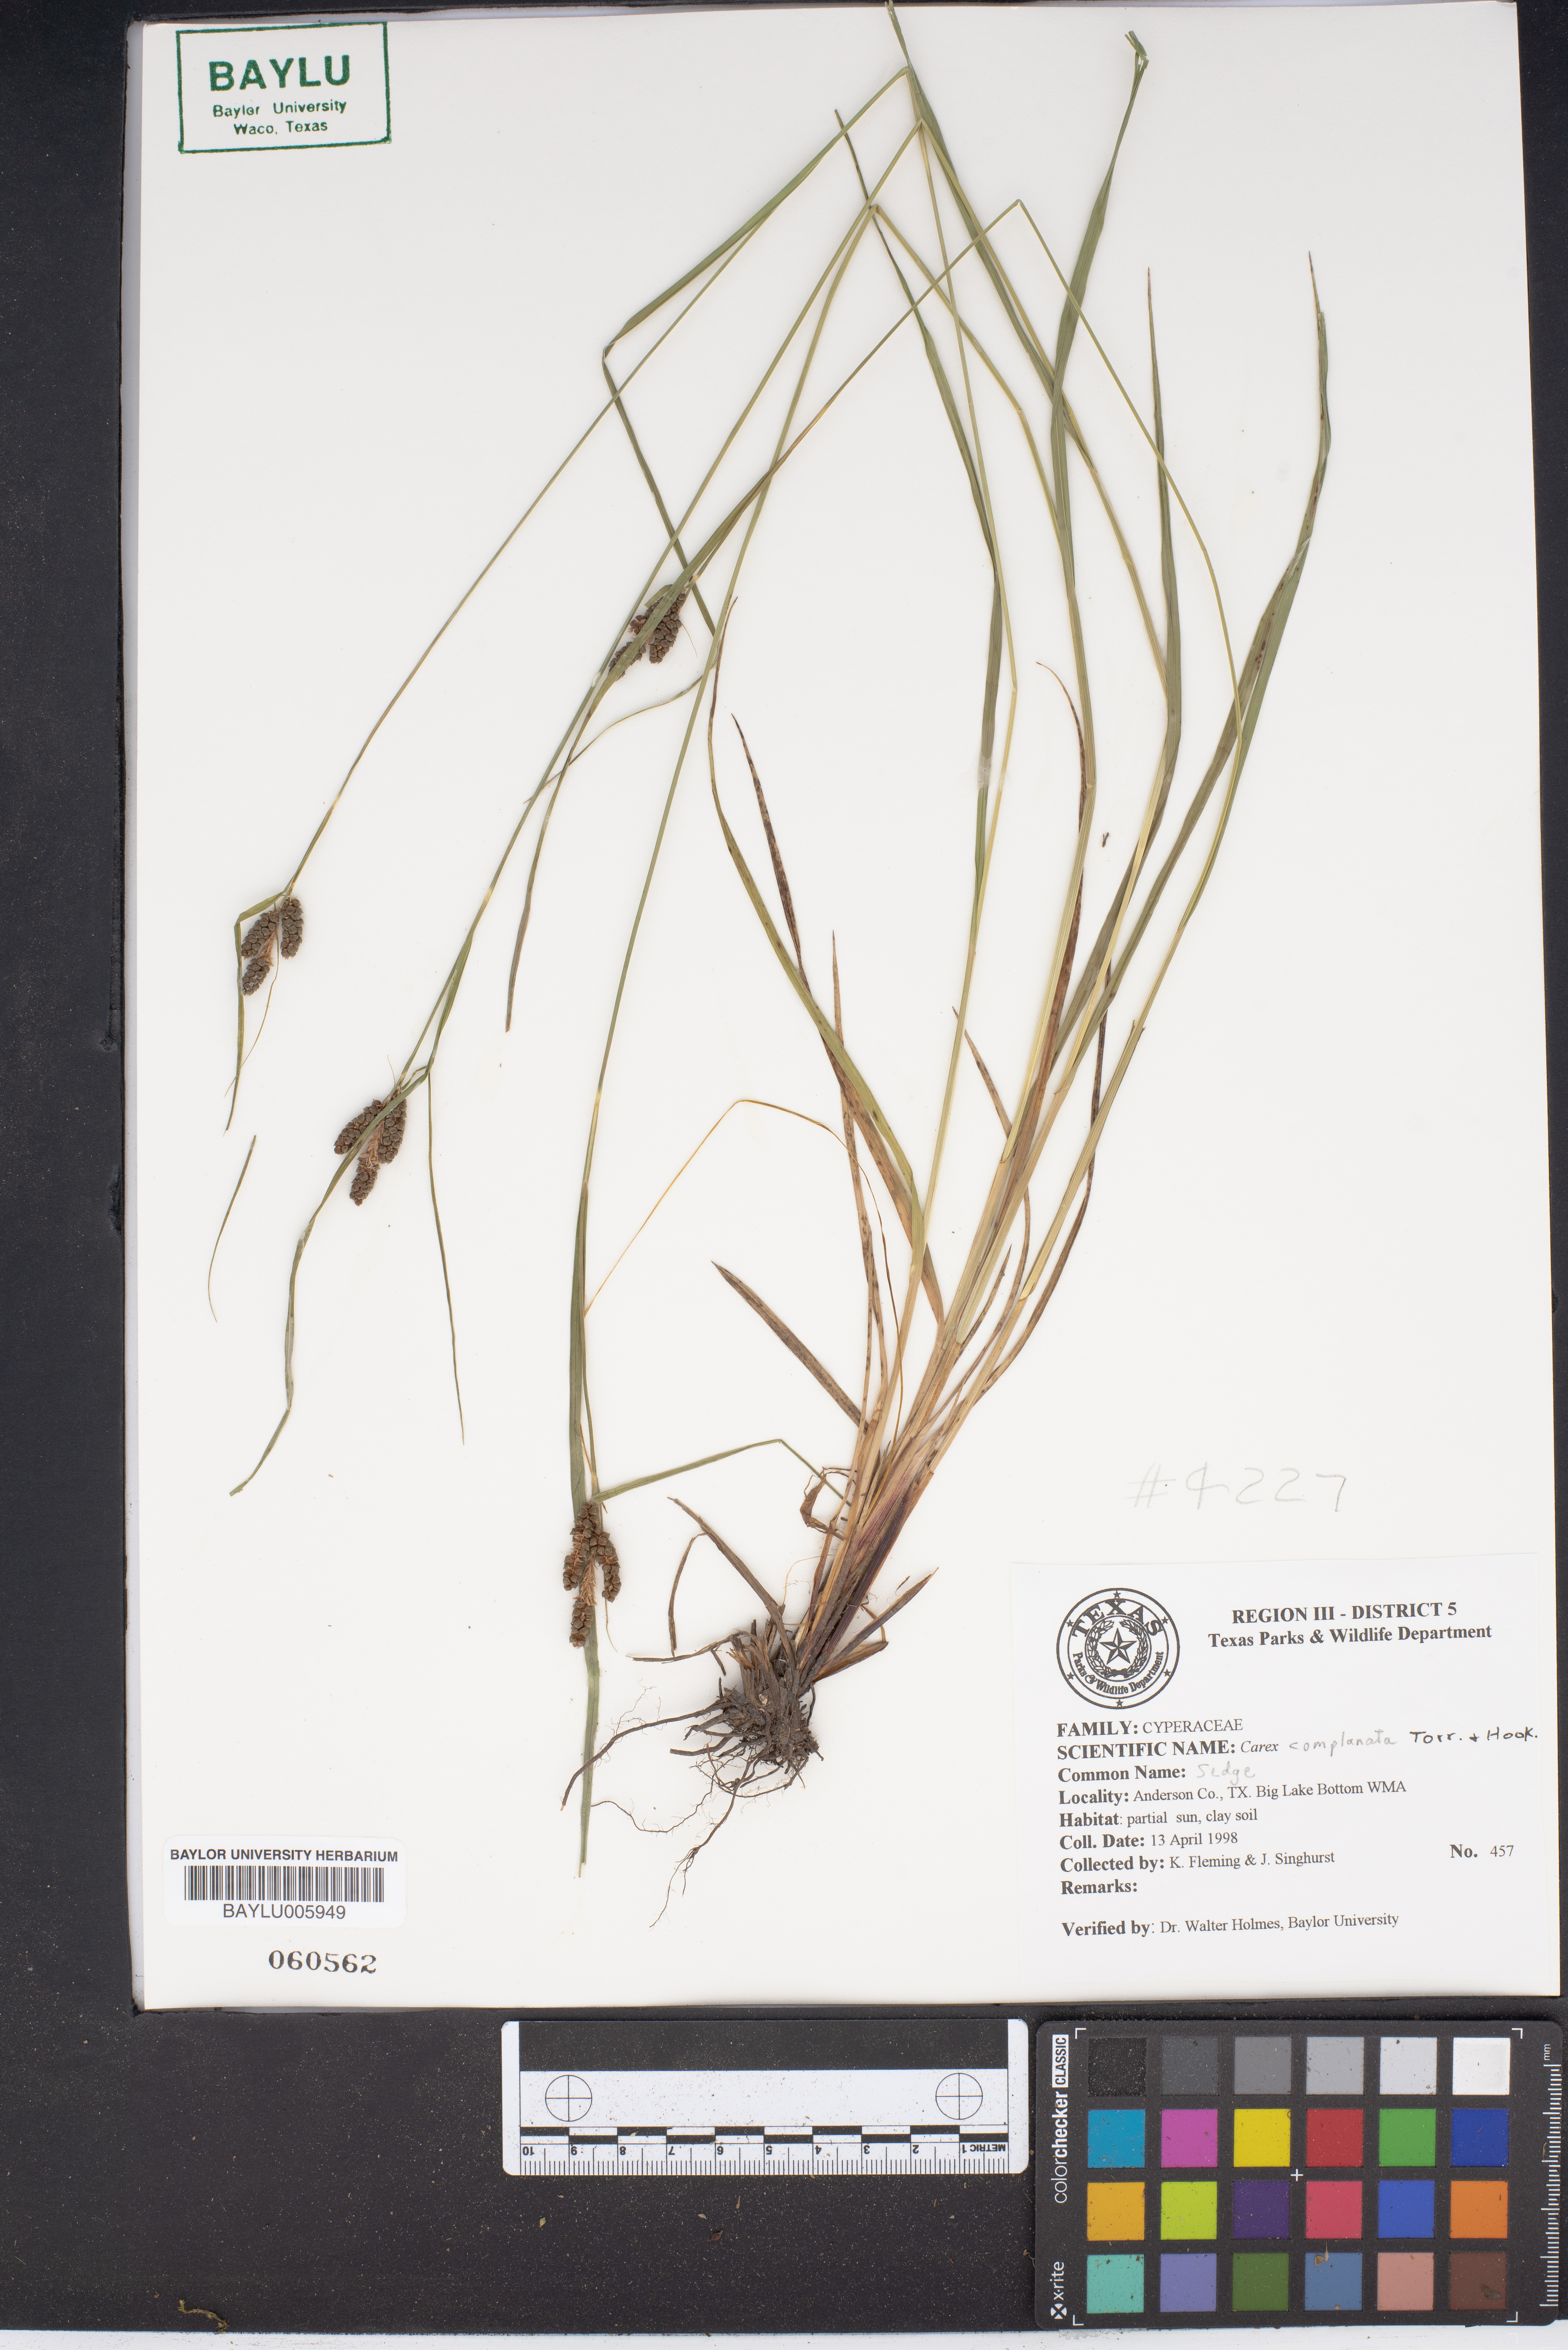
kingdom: Plantae
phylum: Tracheophyta
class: Liliopsida
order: Poales
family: Cyperaceae
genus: Carex
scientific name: Carex complanata
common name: Hirsute sedge
